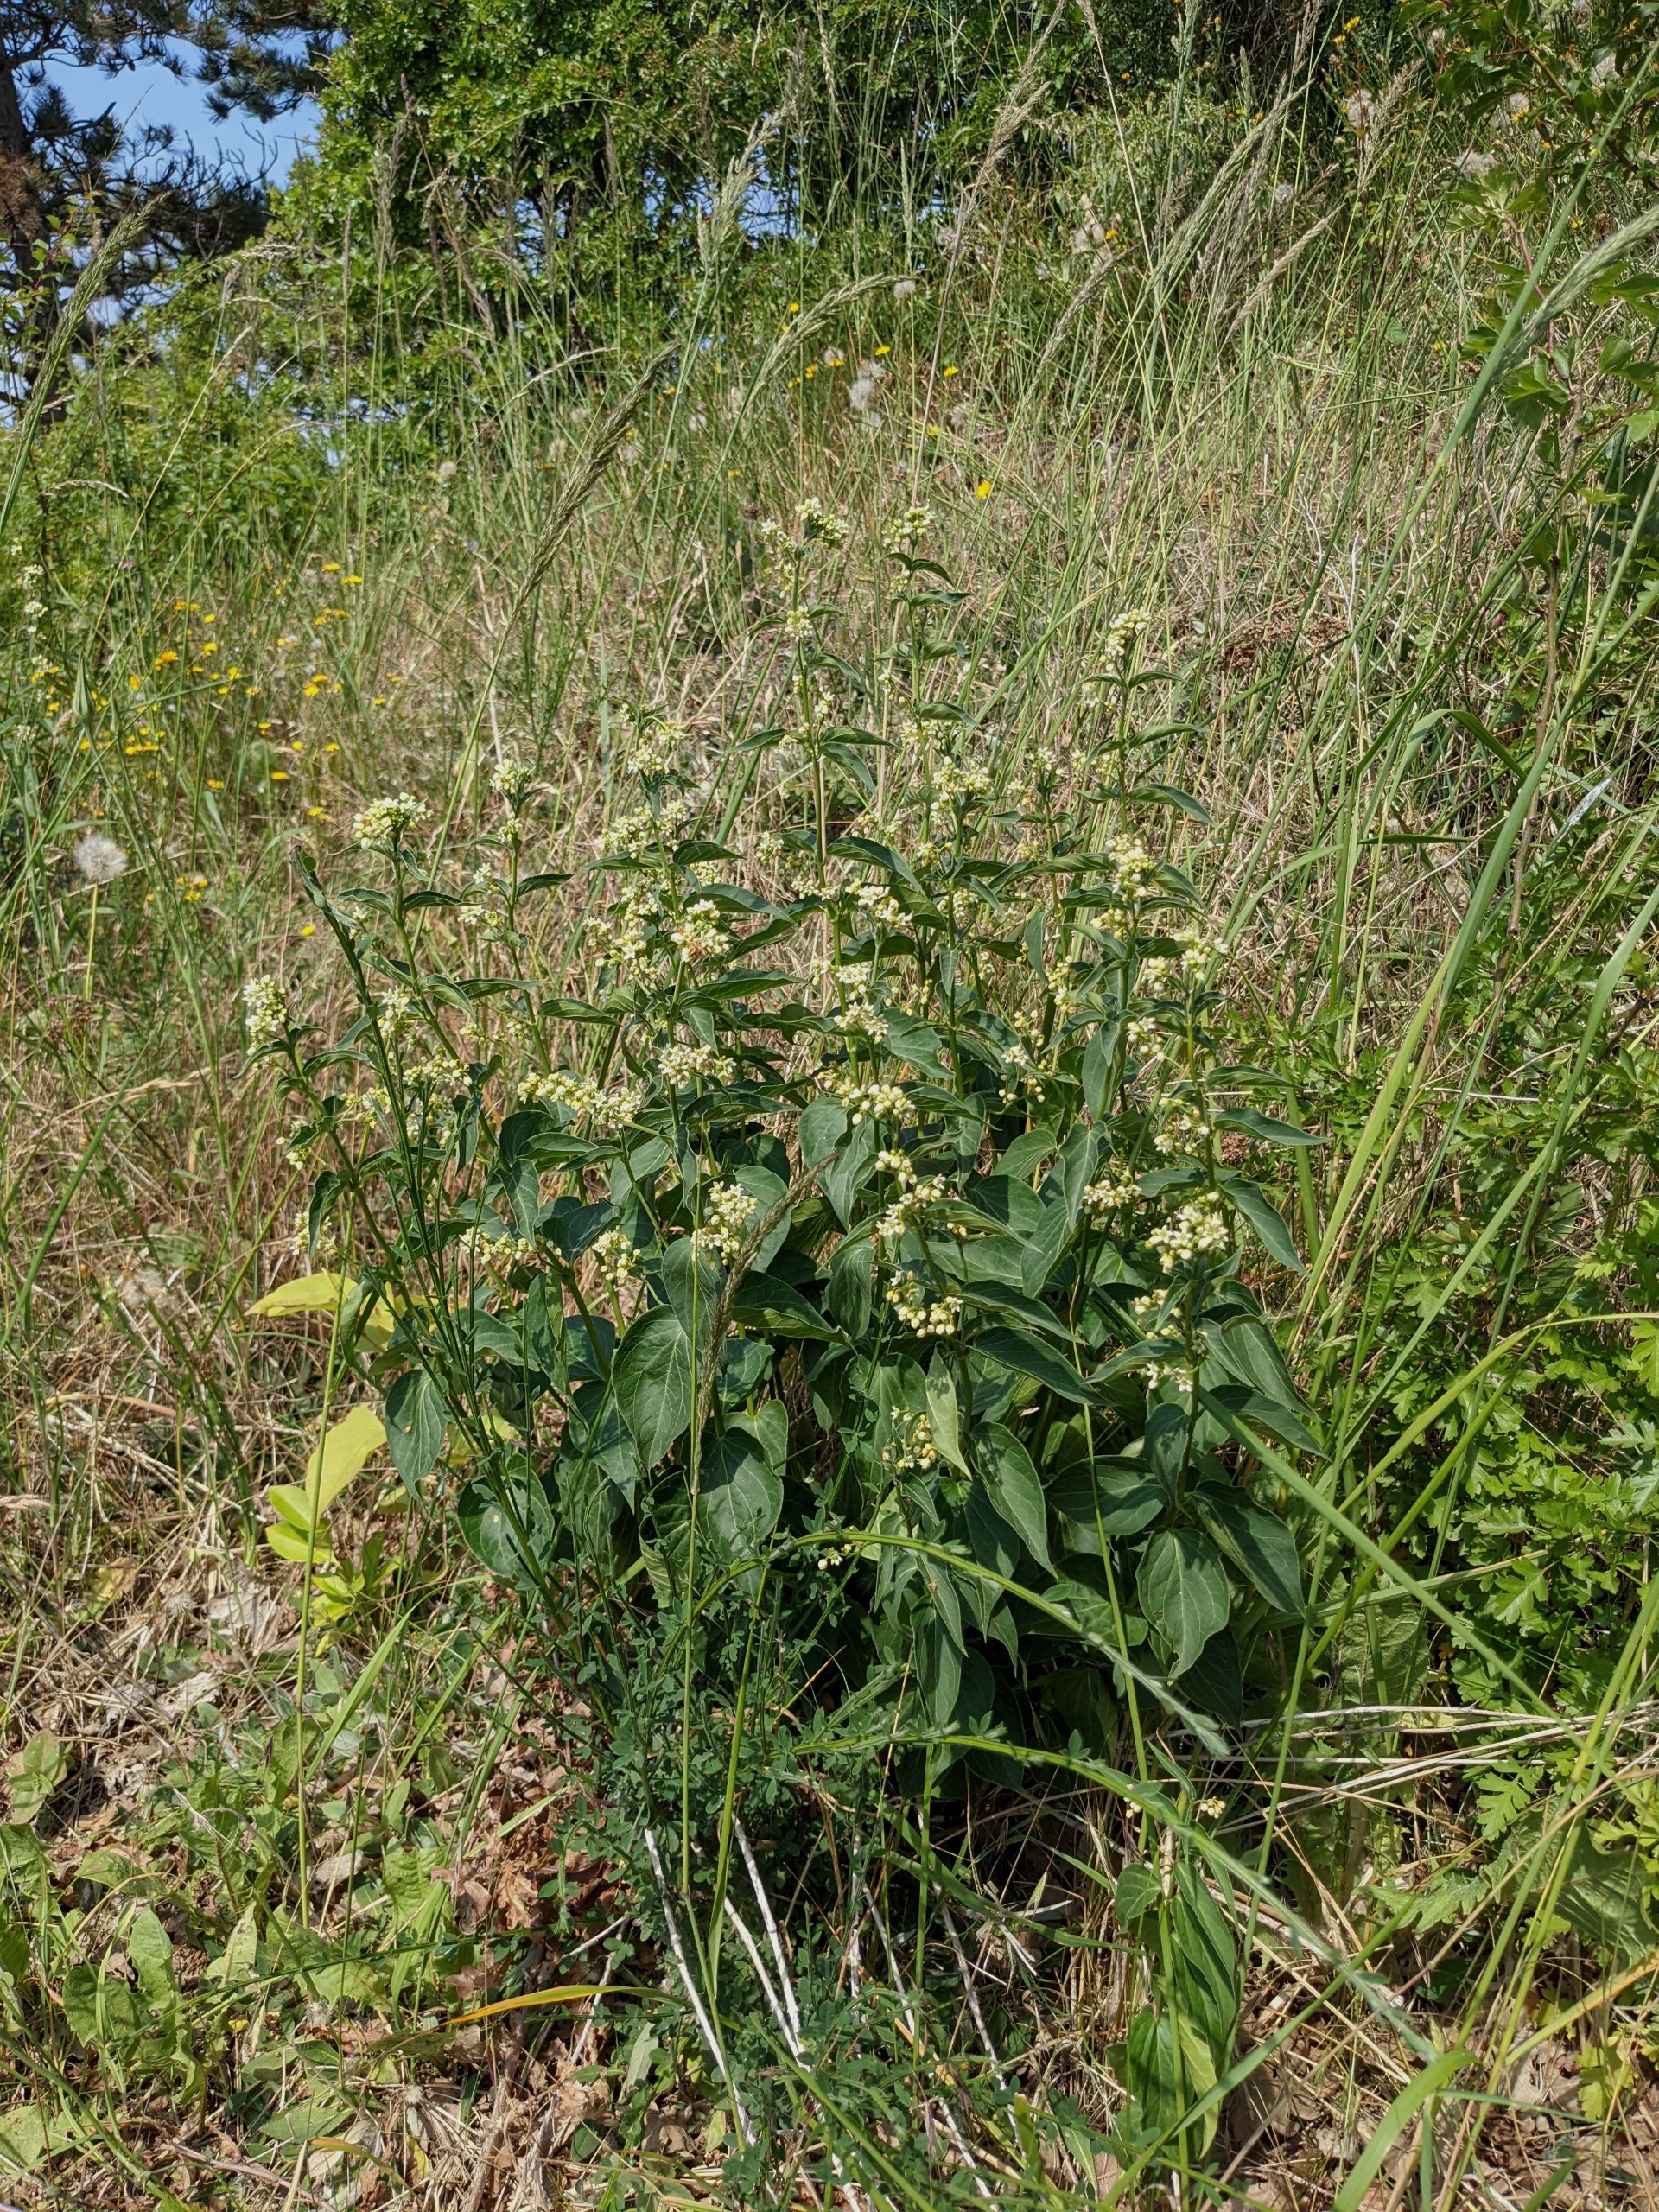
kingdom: Plantae
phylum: Tracheophyta
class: Magnoliopsida
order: Gentianales
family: Apocynaceae
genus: Vincetoxicum
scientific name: Vincetoxicum hirundinaria
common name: Svalerod
